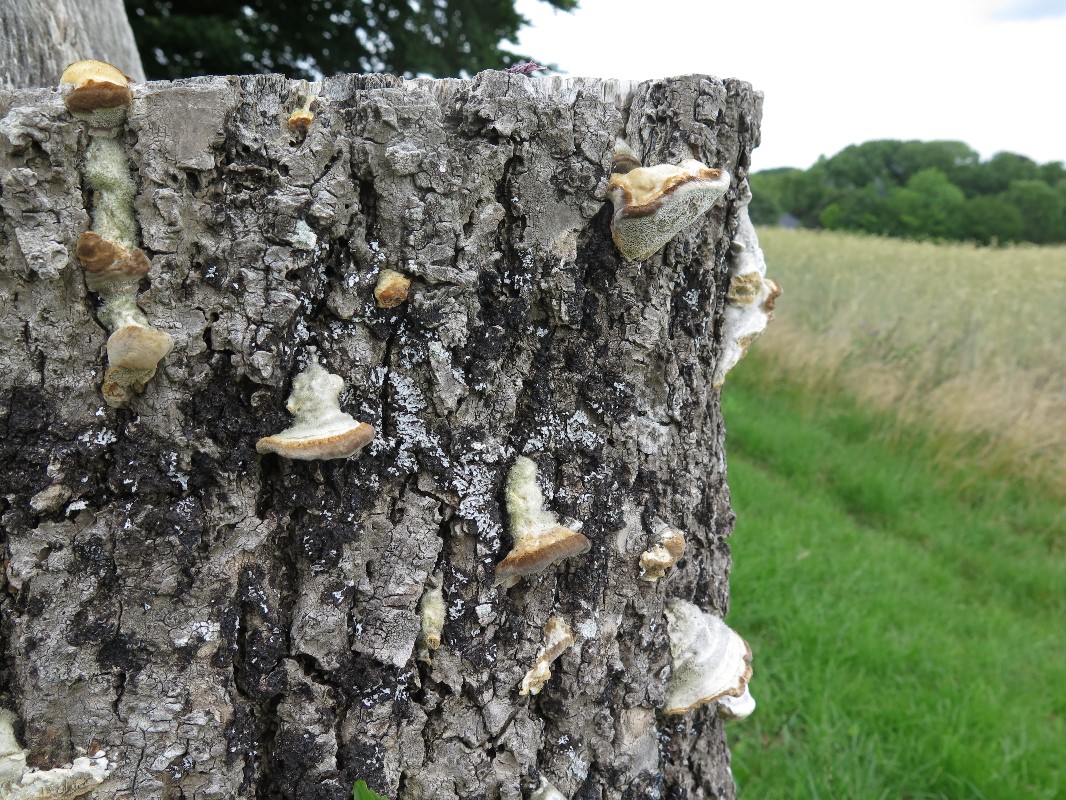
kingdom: Fungi
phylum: Basidiomycota
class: Agaricomycetes
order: Polyporales
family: Polyporaceae
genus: Trametes
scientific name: Trametes hirsuta
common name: håret læderporesvamp
